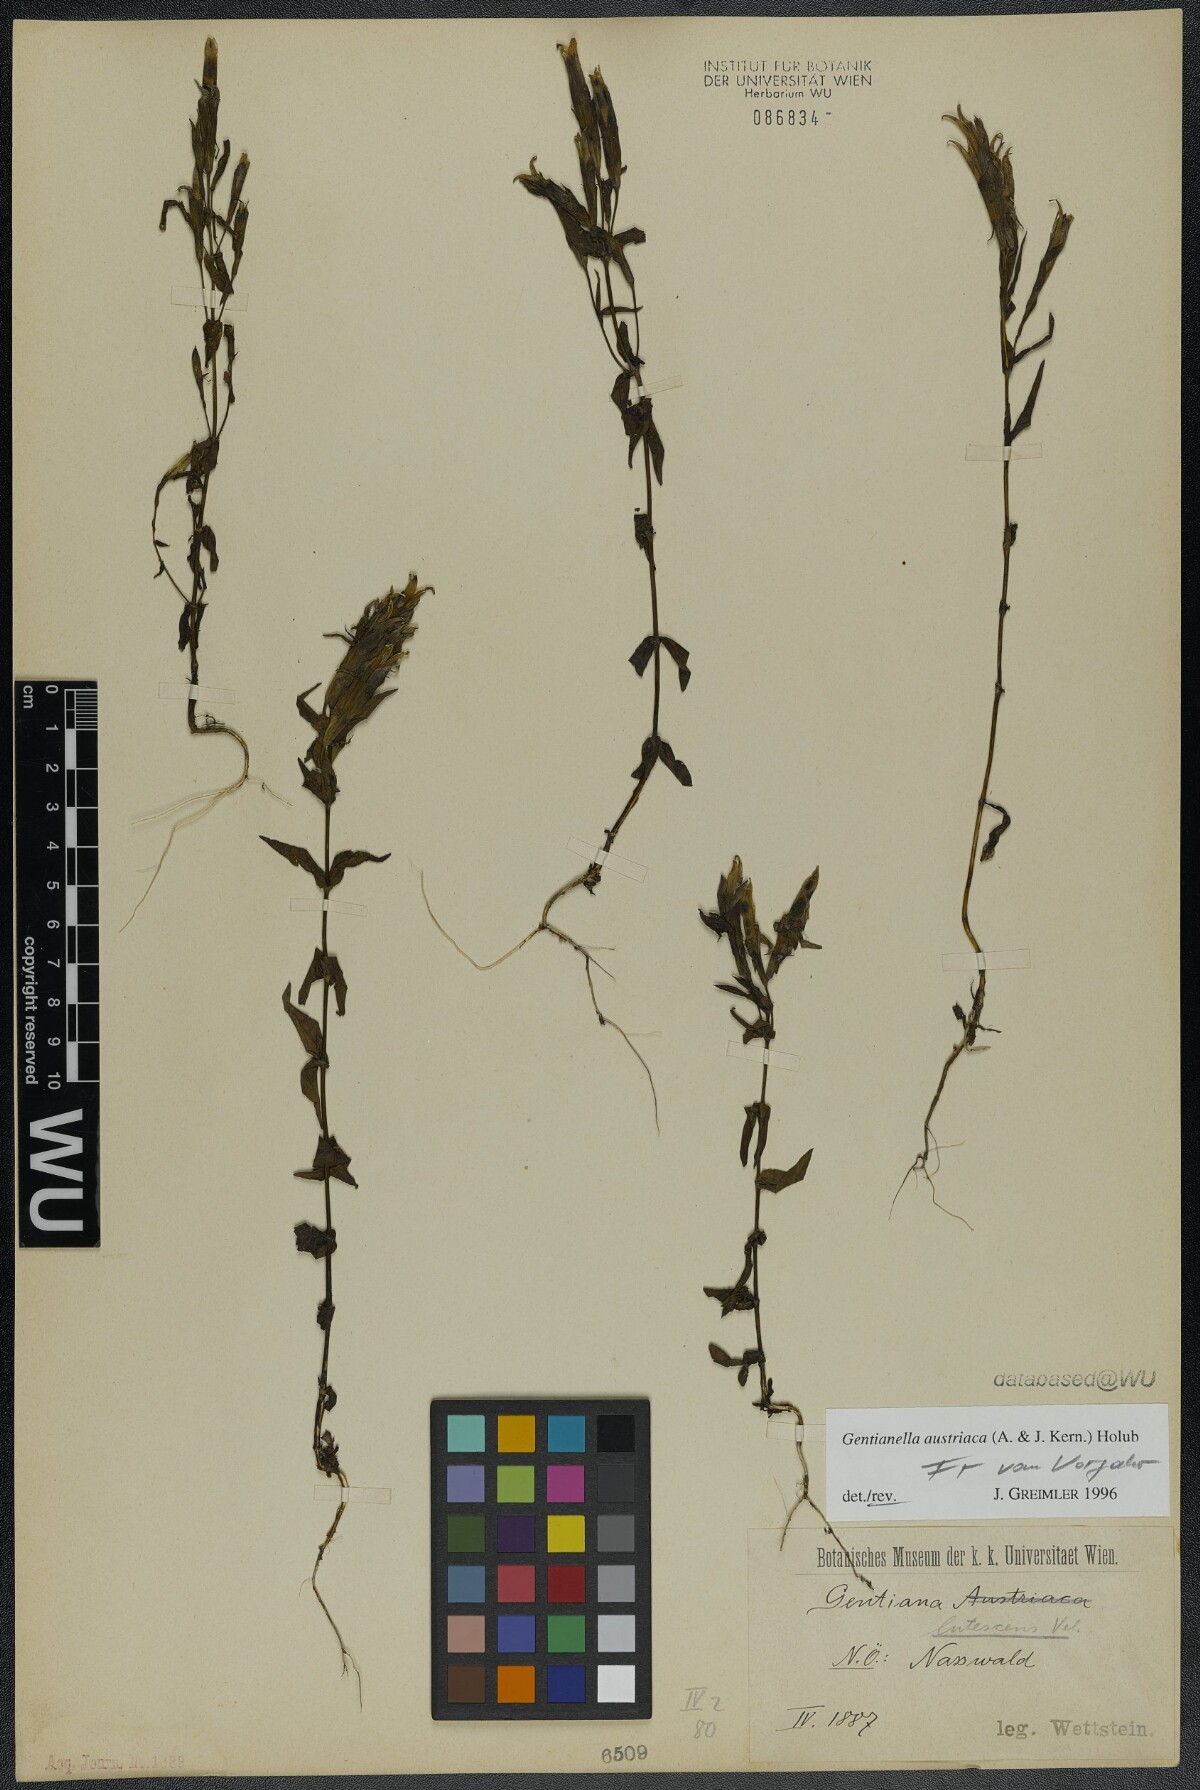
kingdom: Plantae
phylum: Tracheophyta
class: Magnoliopsida
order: Gentianales
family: Gentianaceae
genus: Gentianella
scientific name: Gentianella austriaca
